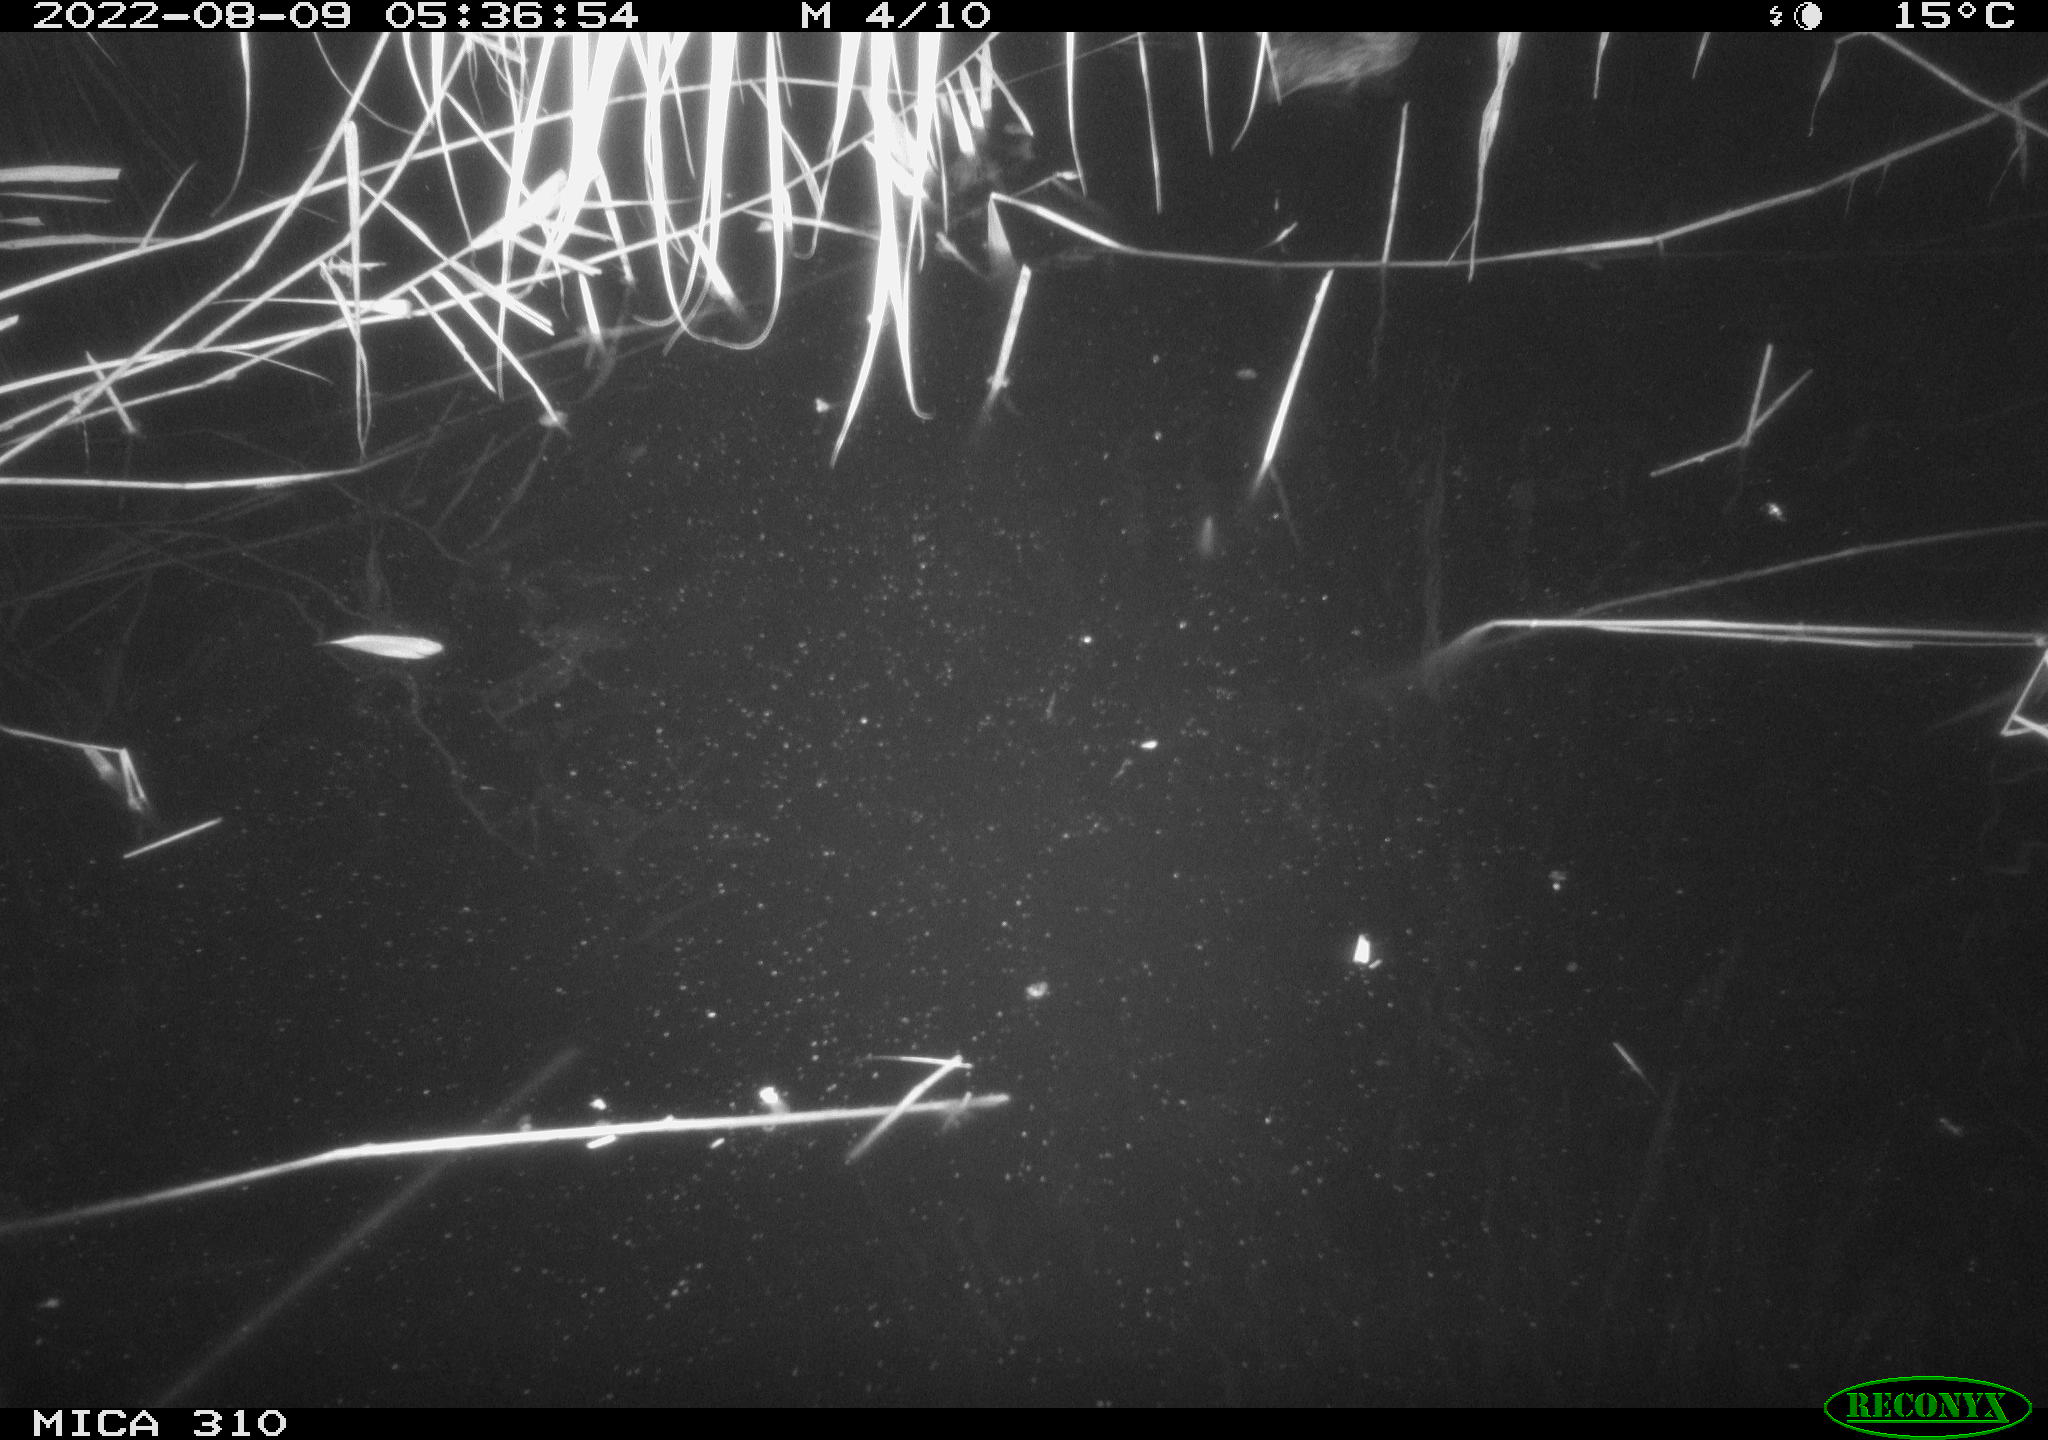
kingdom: Animalia
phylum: Chordata
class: Aves
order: Anseriformes
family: Anatidae
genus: Anas
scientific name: Anas platyrhynchos
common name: Mallard
